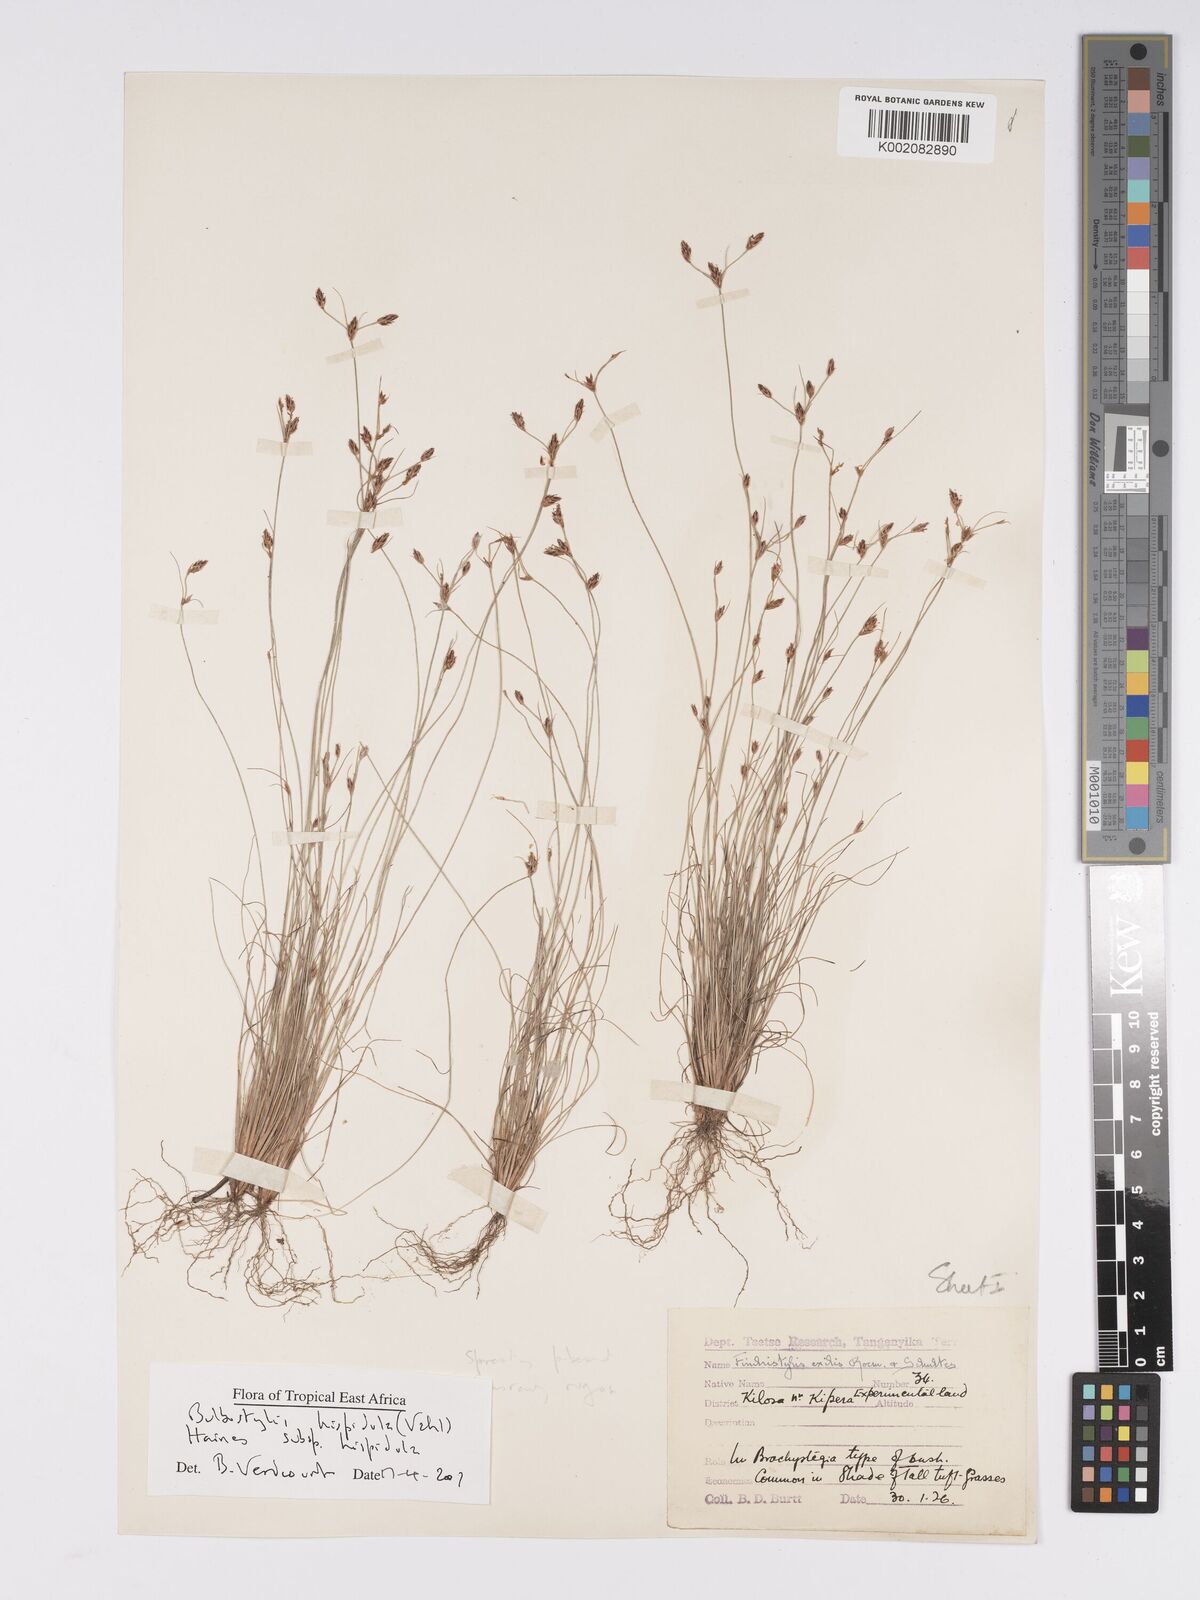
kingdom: Plantae
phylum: Tracheophyta
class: Liliopsida
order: Poales
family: Cyperaceae
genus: Bulbostylis
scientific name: Bulbostylis hispidula
